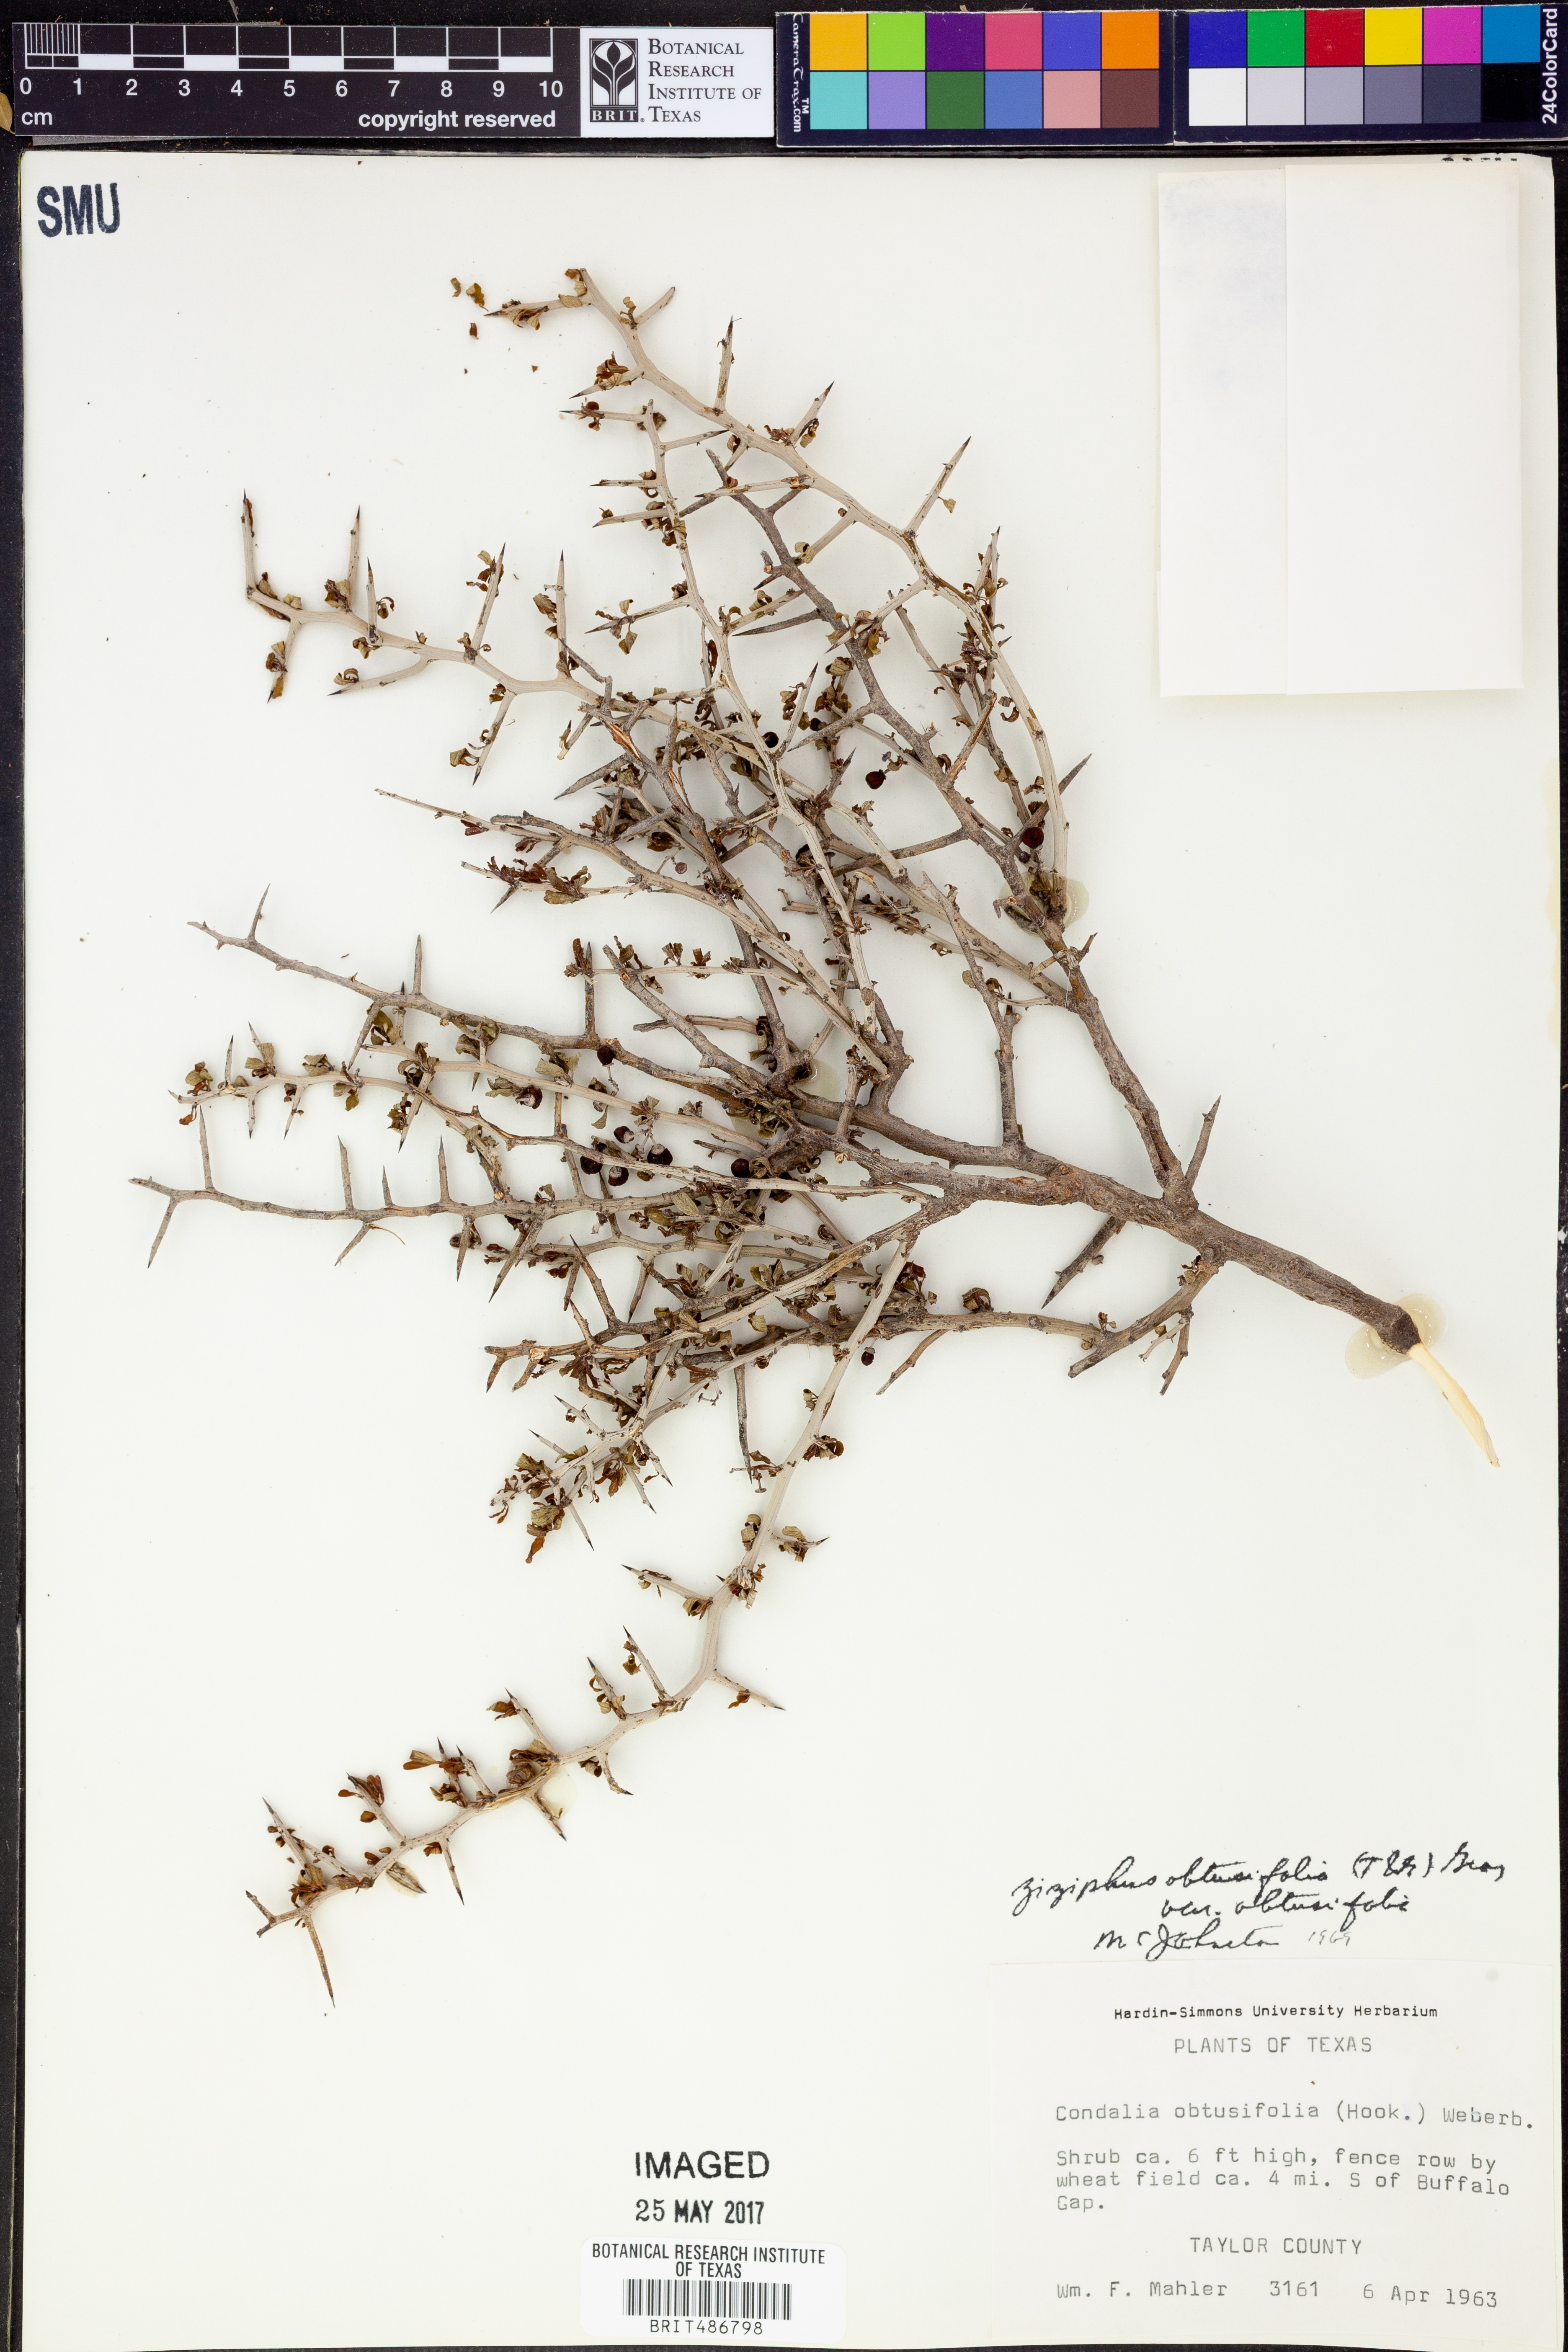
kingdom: Plantae
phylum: Tracheophyta
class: Magnoliopsida
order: Rosales
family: Rhamnaceae
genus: Sarcomphalus
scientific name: Sarcomphalus obtusifolius
